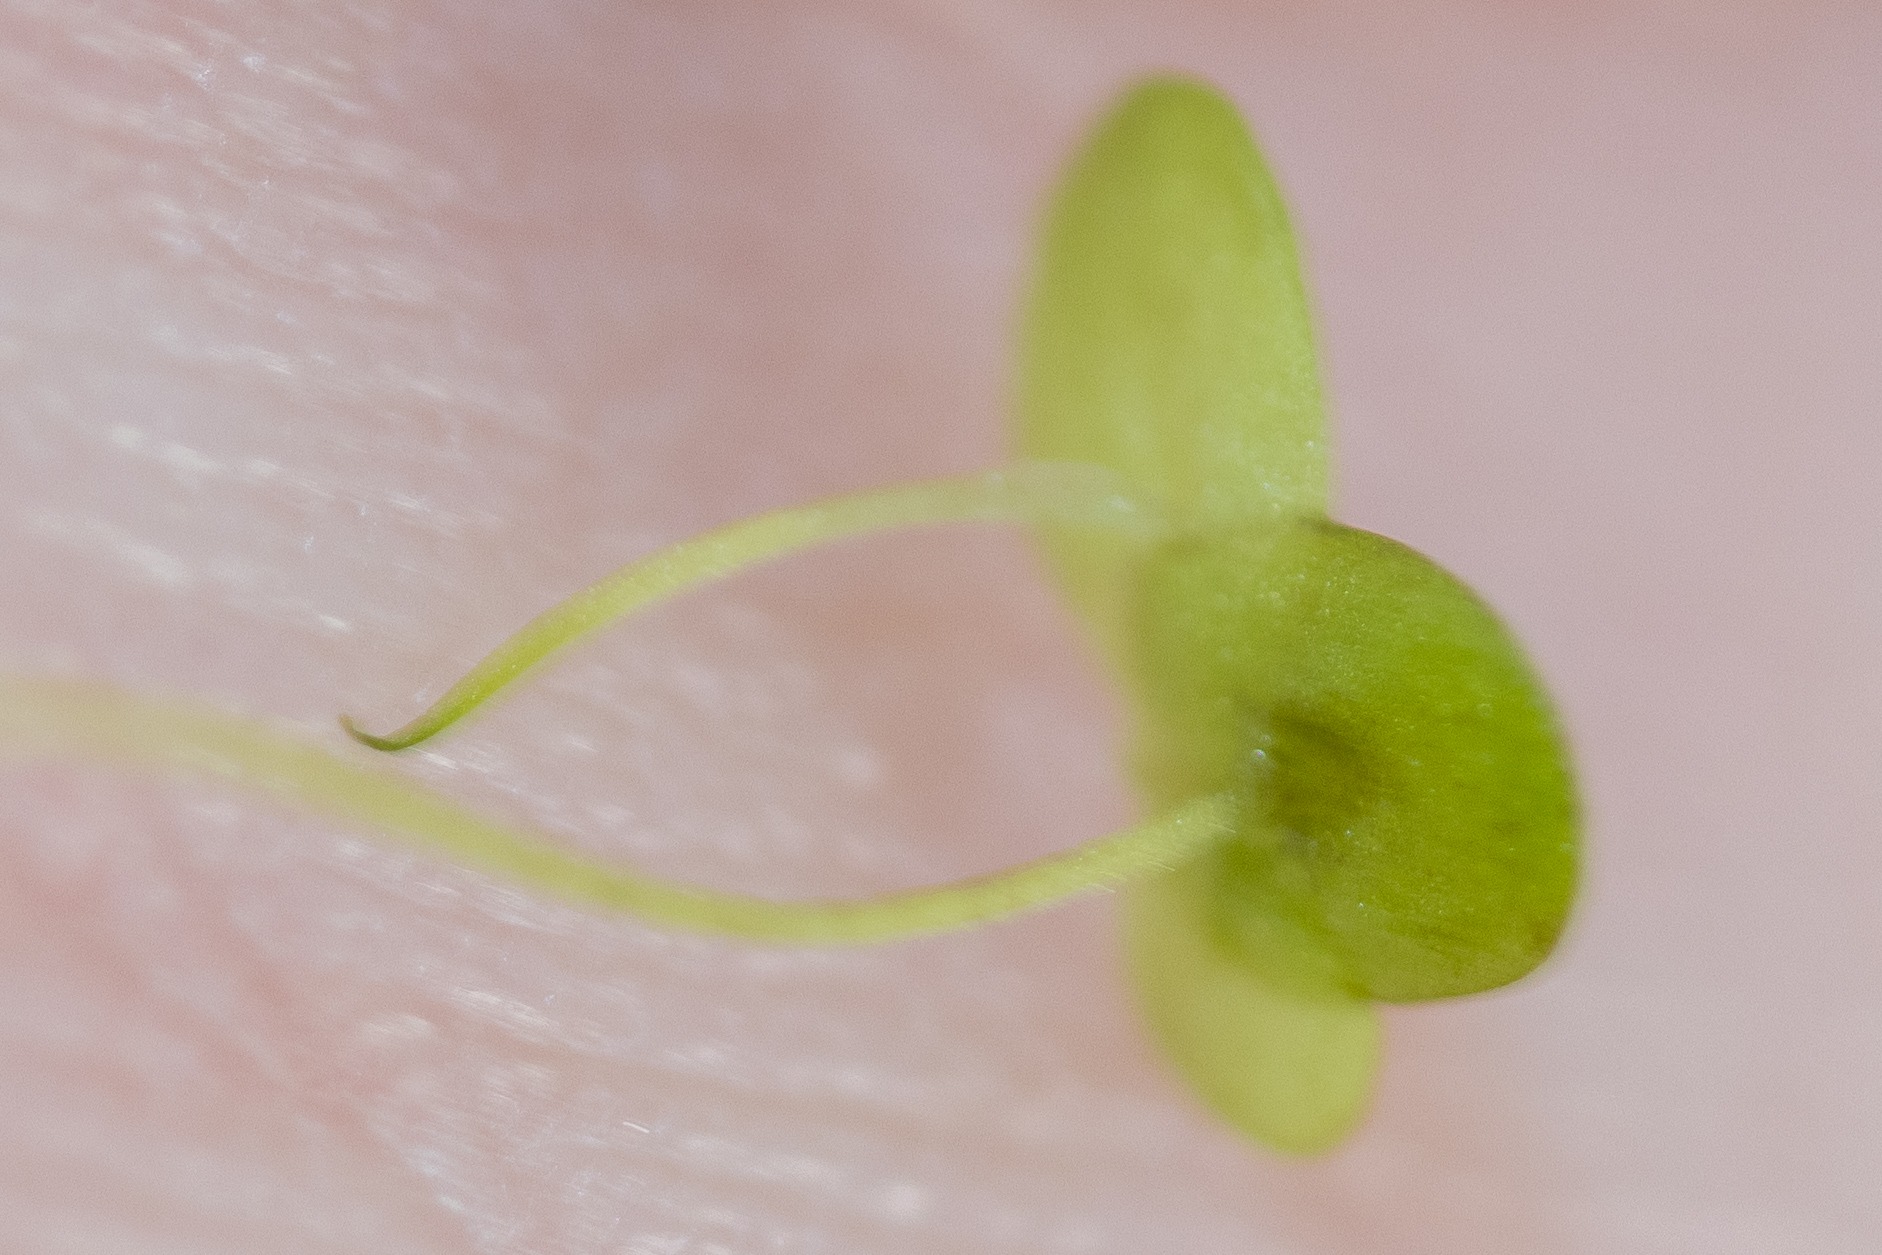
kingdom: Plantae
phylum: Tracheophyta
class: Liliopsida
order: Alismatales
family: Araceae
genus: Lemna
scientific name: Lemna minor
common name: Liden andemad
